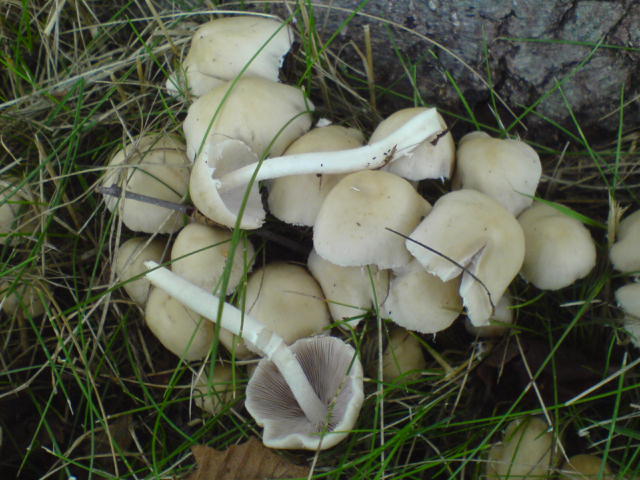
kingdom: Fungi
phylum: Basidiomycota
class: Agaricomycetes
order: Agaricales
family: Psathyrellaceae
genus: Candolleomyces
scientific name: Candolleomyces candolleanus
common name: Candolles mørkhat
